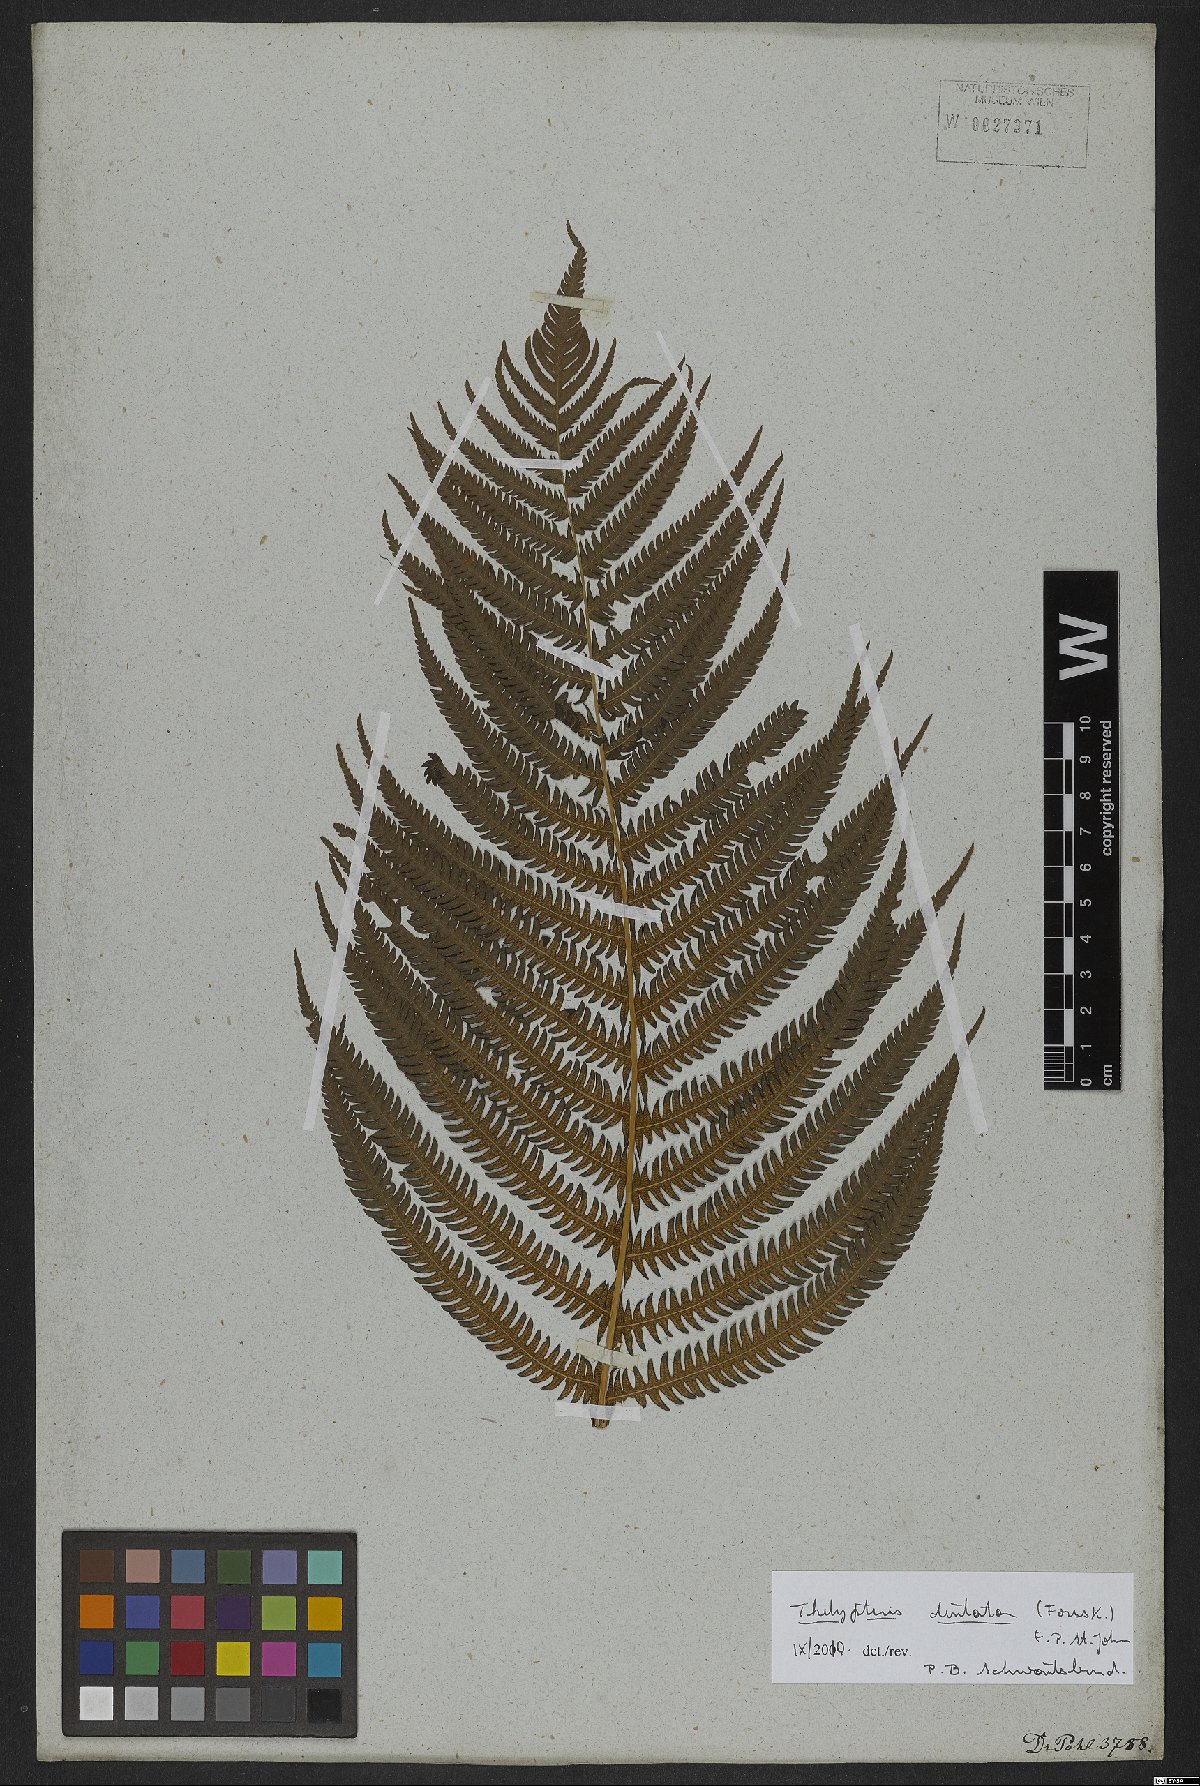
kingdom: Plantae
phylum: Tracheophyta
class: Polypodiopsida
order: Polypodiales
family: Thelypteridaceae
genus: Christella
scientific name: Christella dentata
